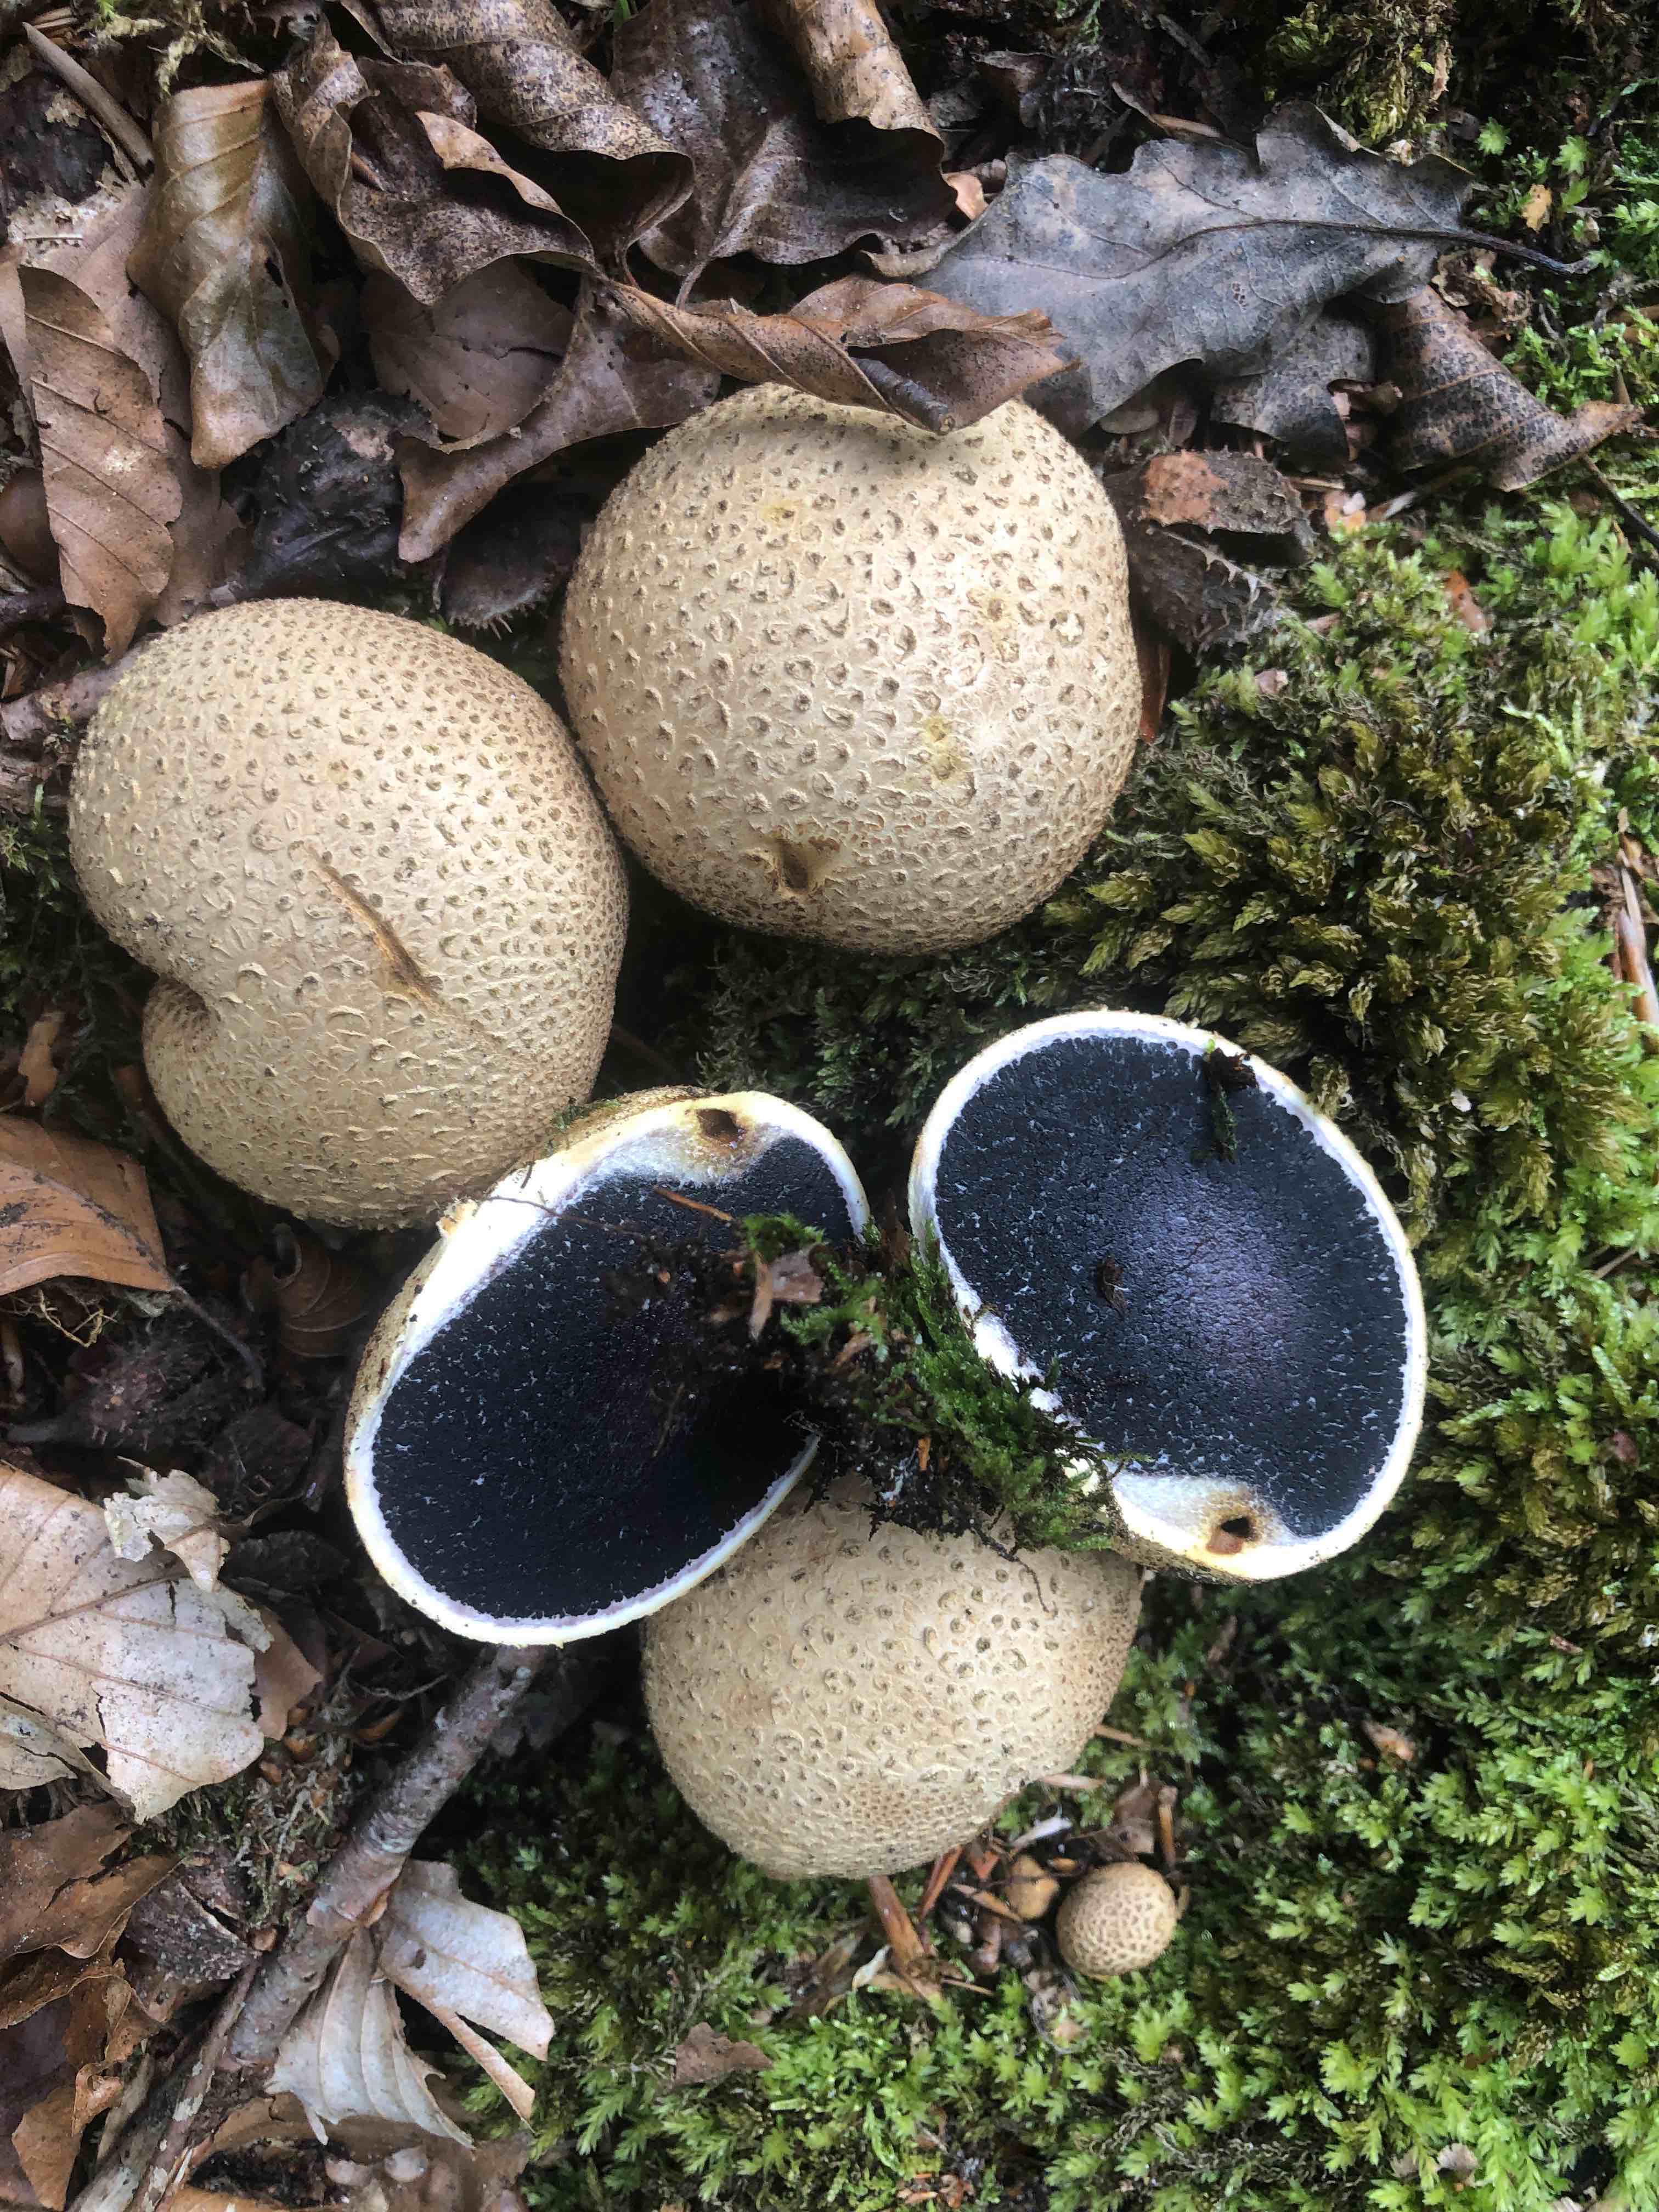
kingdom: Fungi
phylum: Basidiomycota
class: Agaricomycetes
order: Boletales
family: Sclerodermataceae
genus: Scleroderma
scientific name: Scleroderma citrinum
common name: almindelig bruskbold
